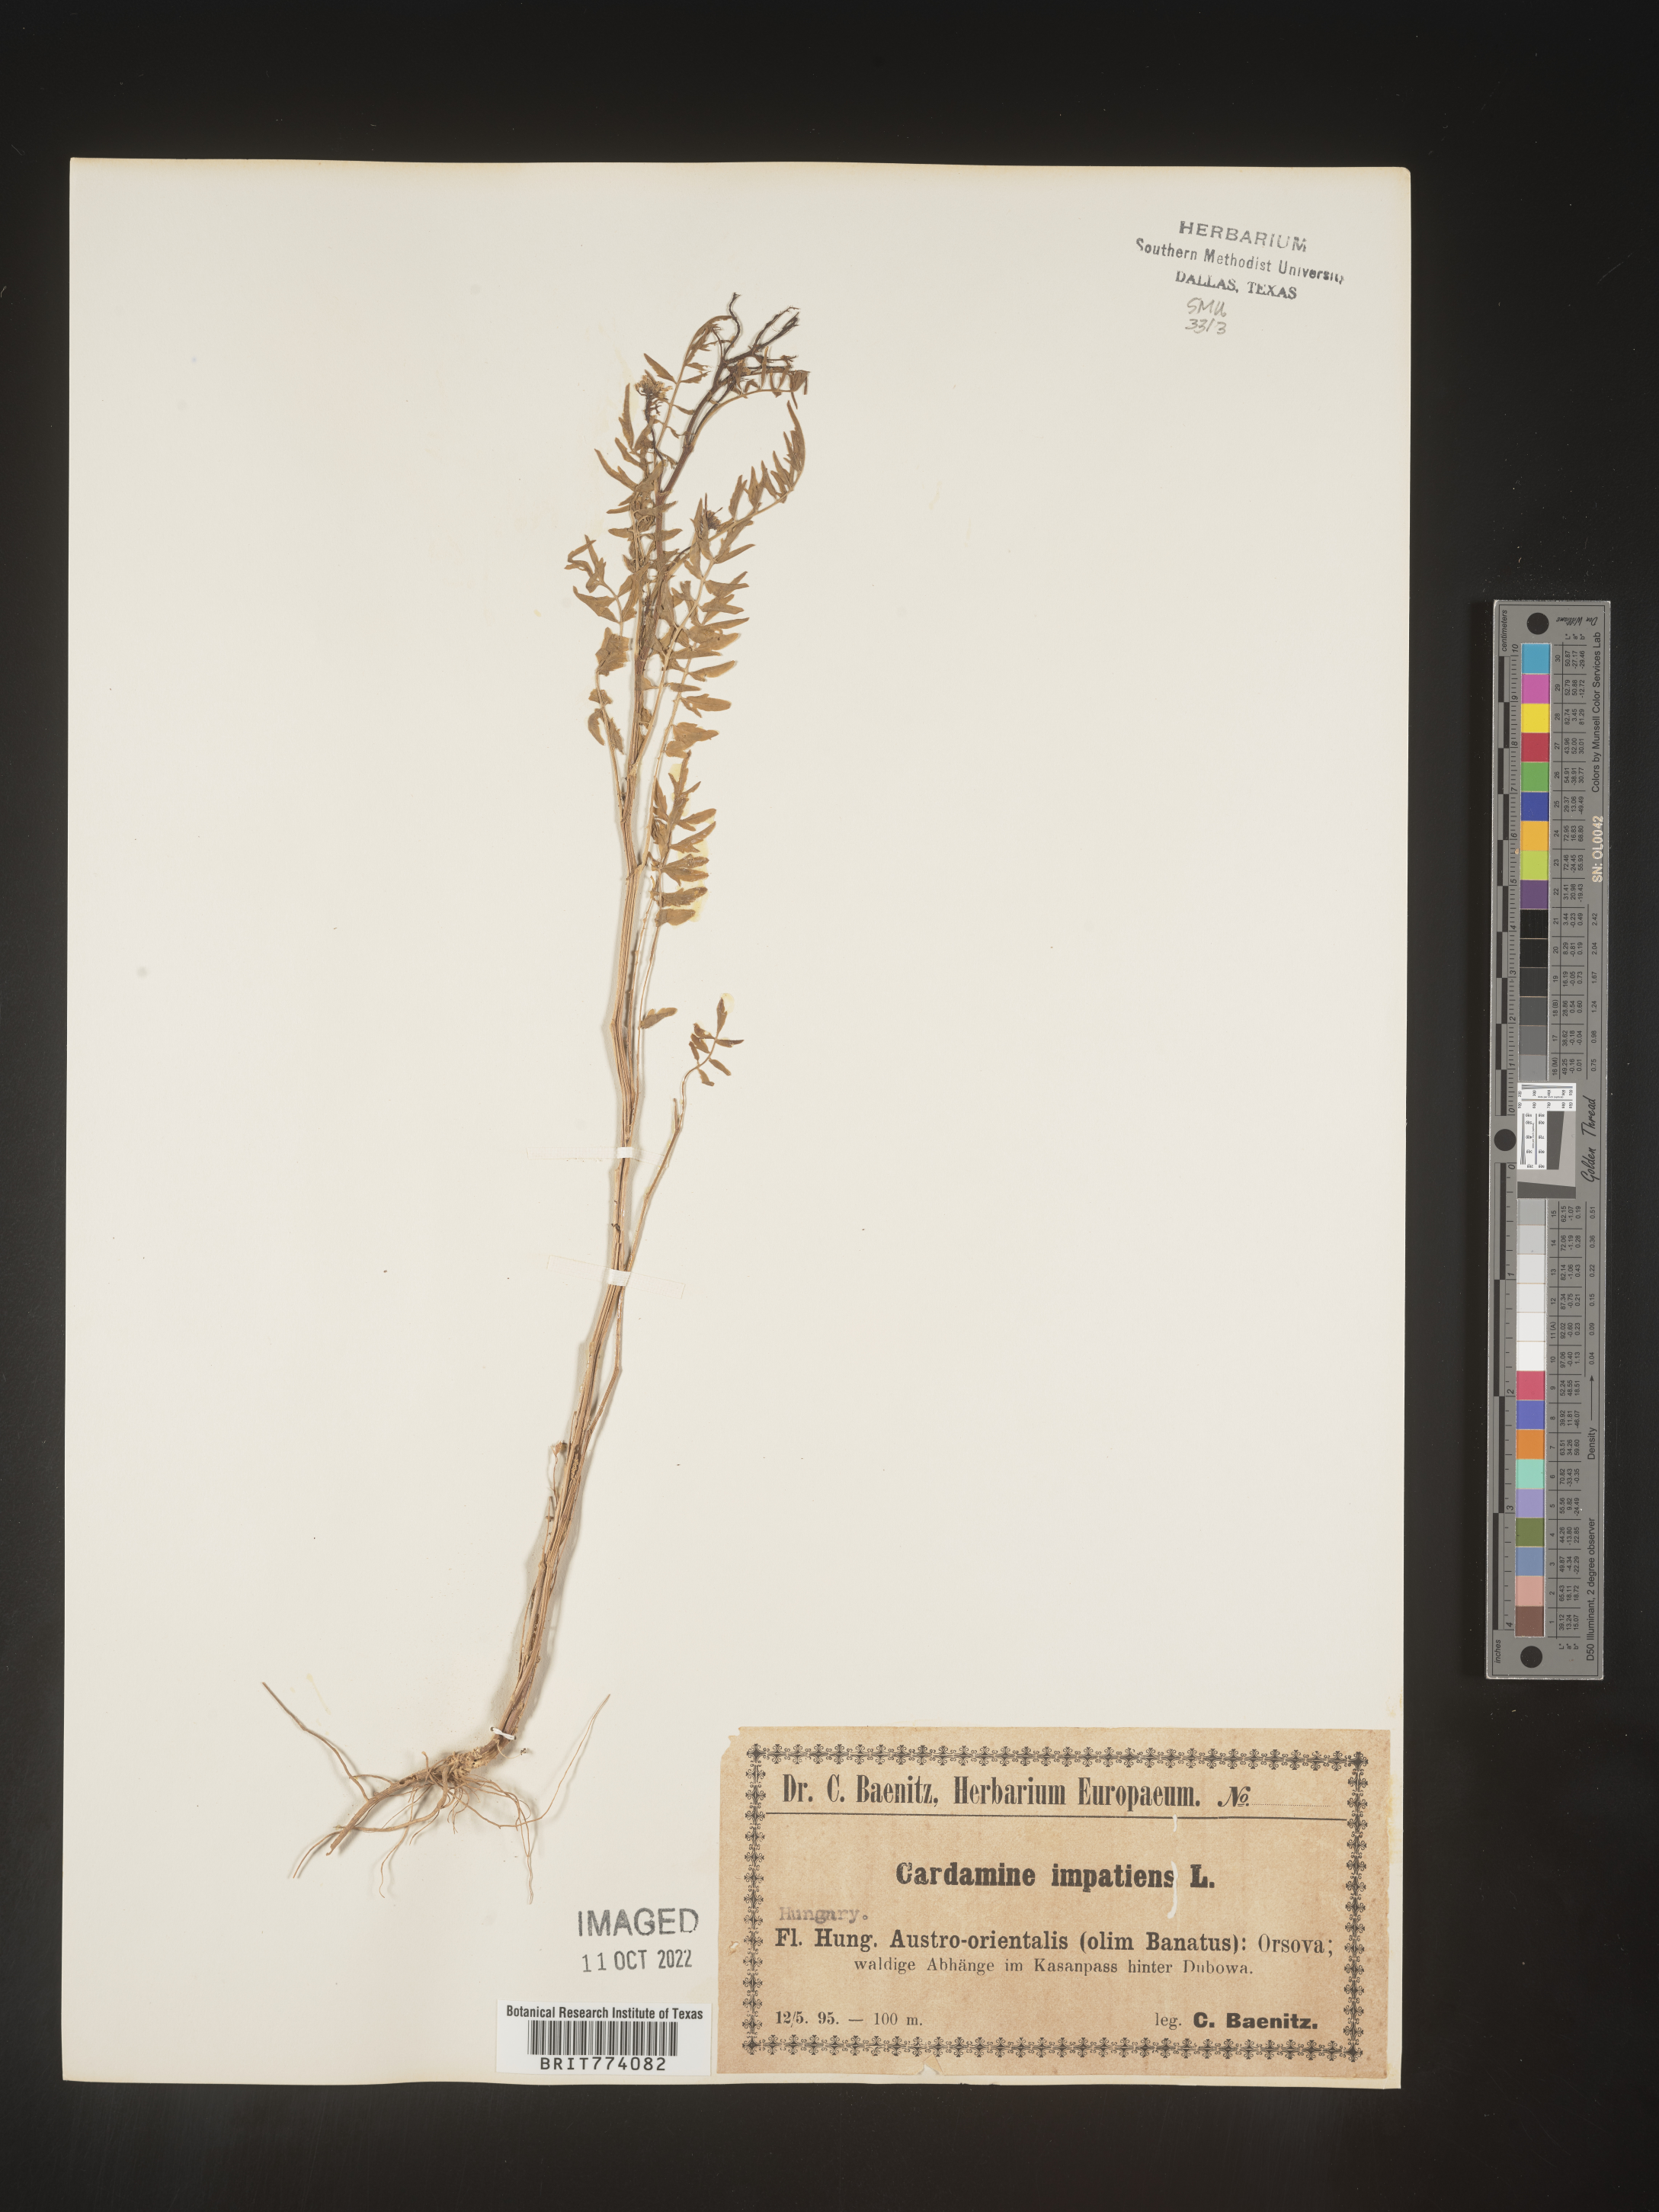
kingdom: Plantae
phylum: Tracheophyta
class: Magnoliopsida
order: Brassicales
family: Brassicaceae
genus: Cardamine
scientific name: Cardamine
